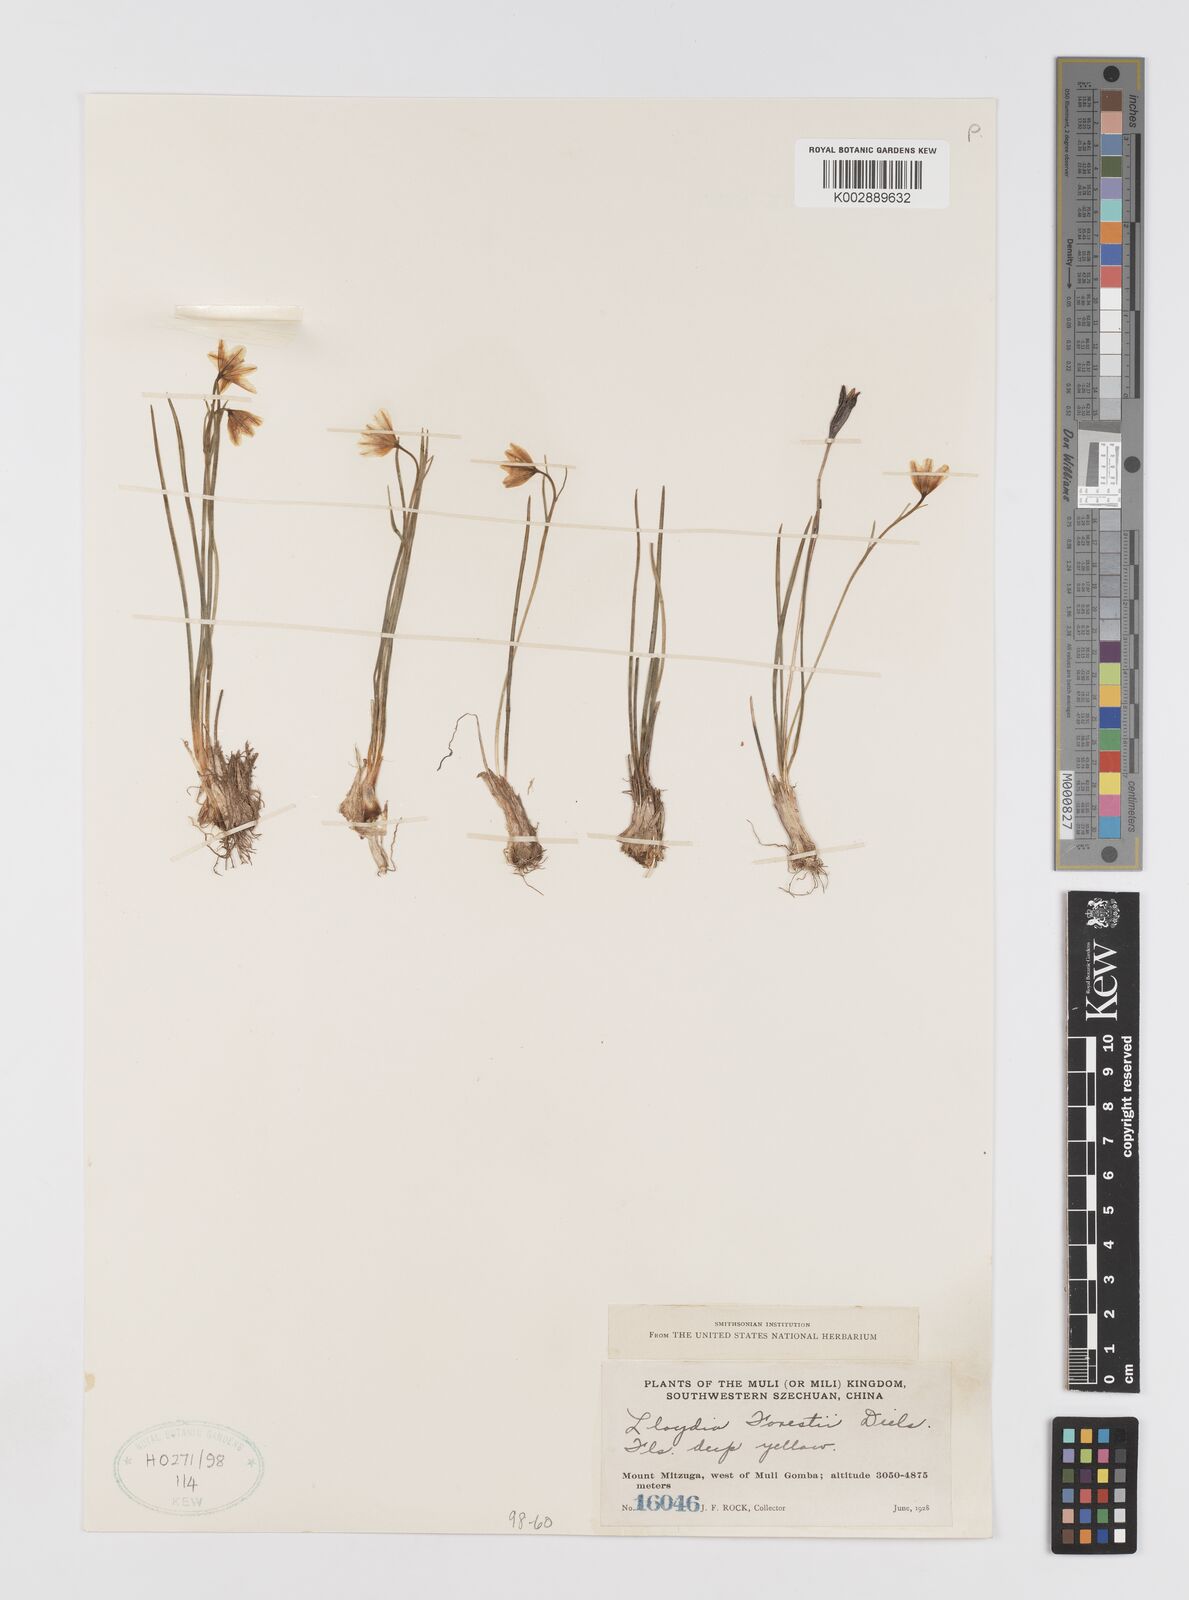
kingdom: Plantae
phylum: Tracheophyta
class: Liliopsida
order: Liliales
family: Liliaceae
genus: Gagea
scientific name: Gagea
